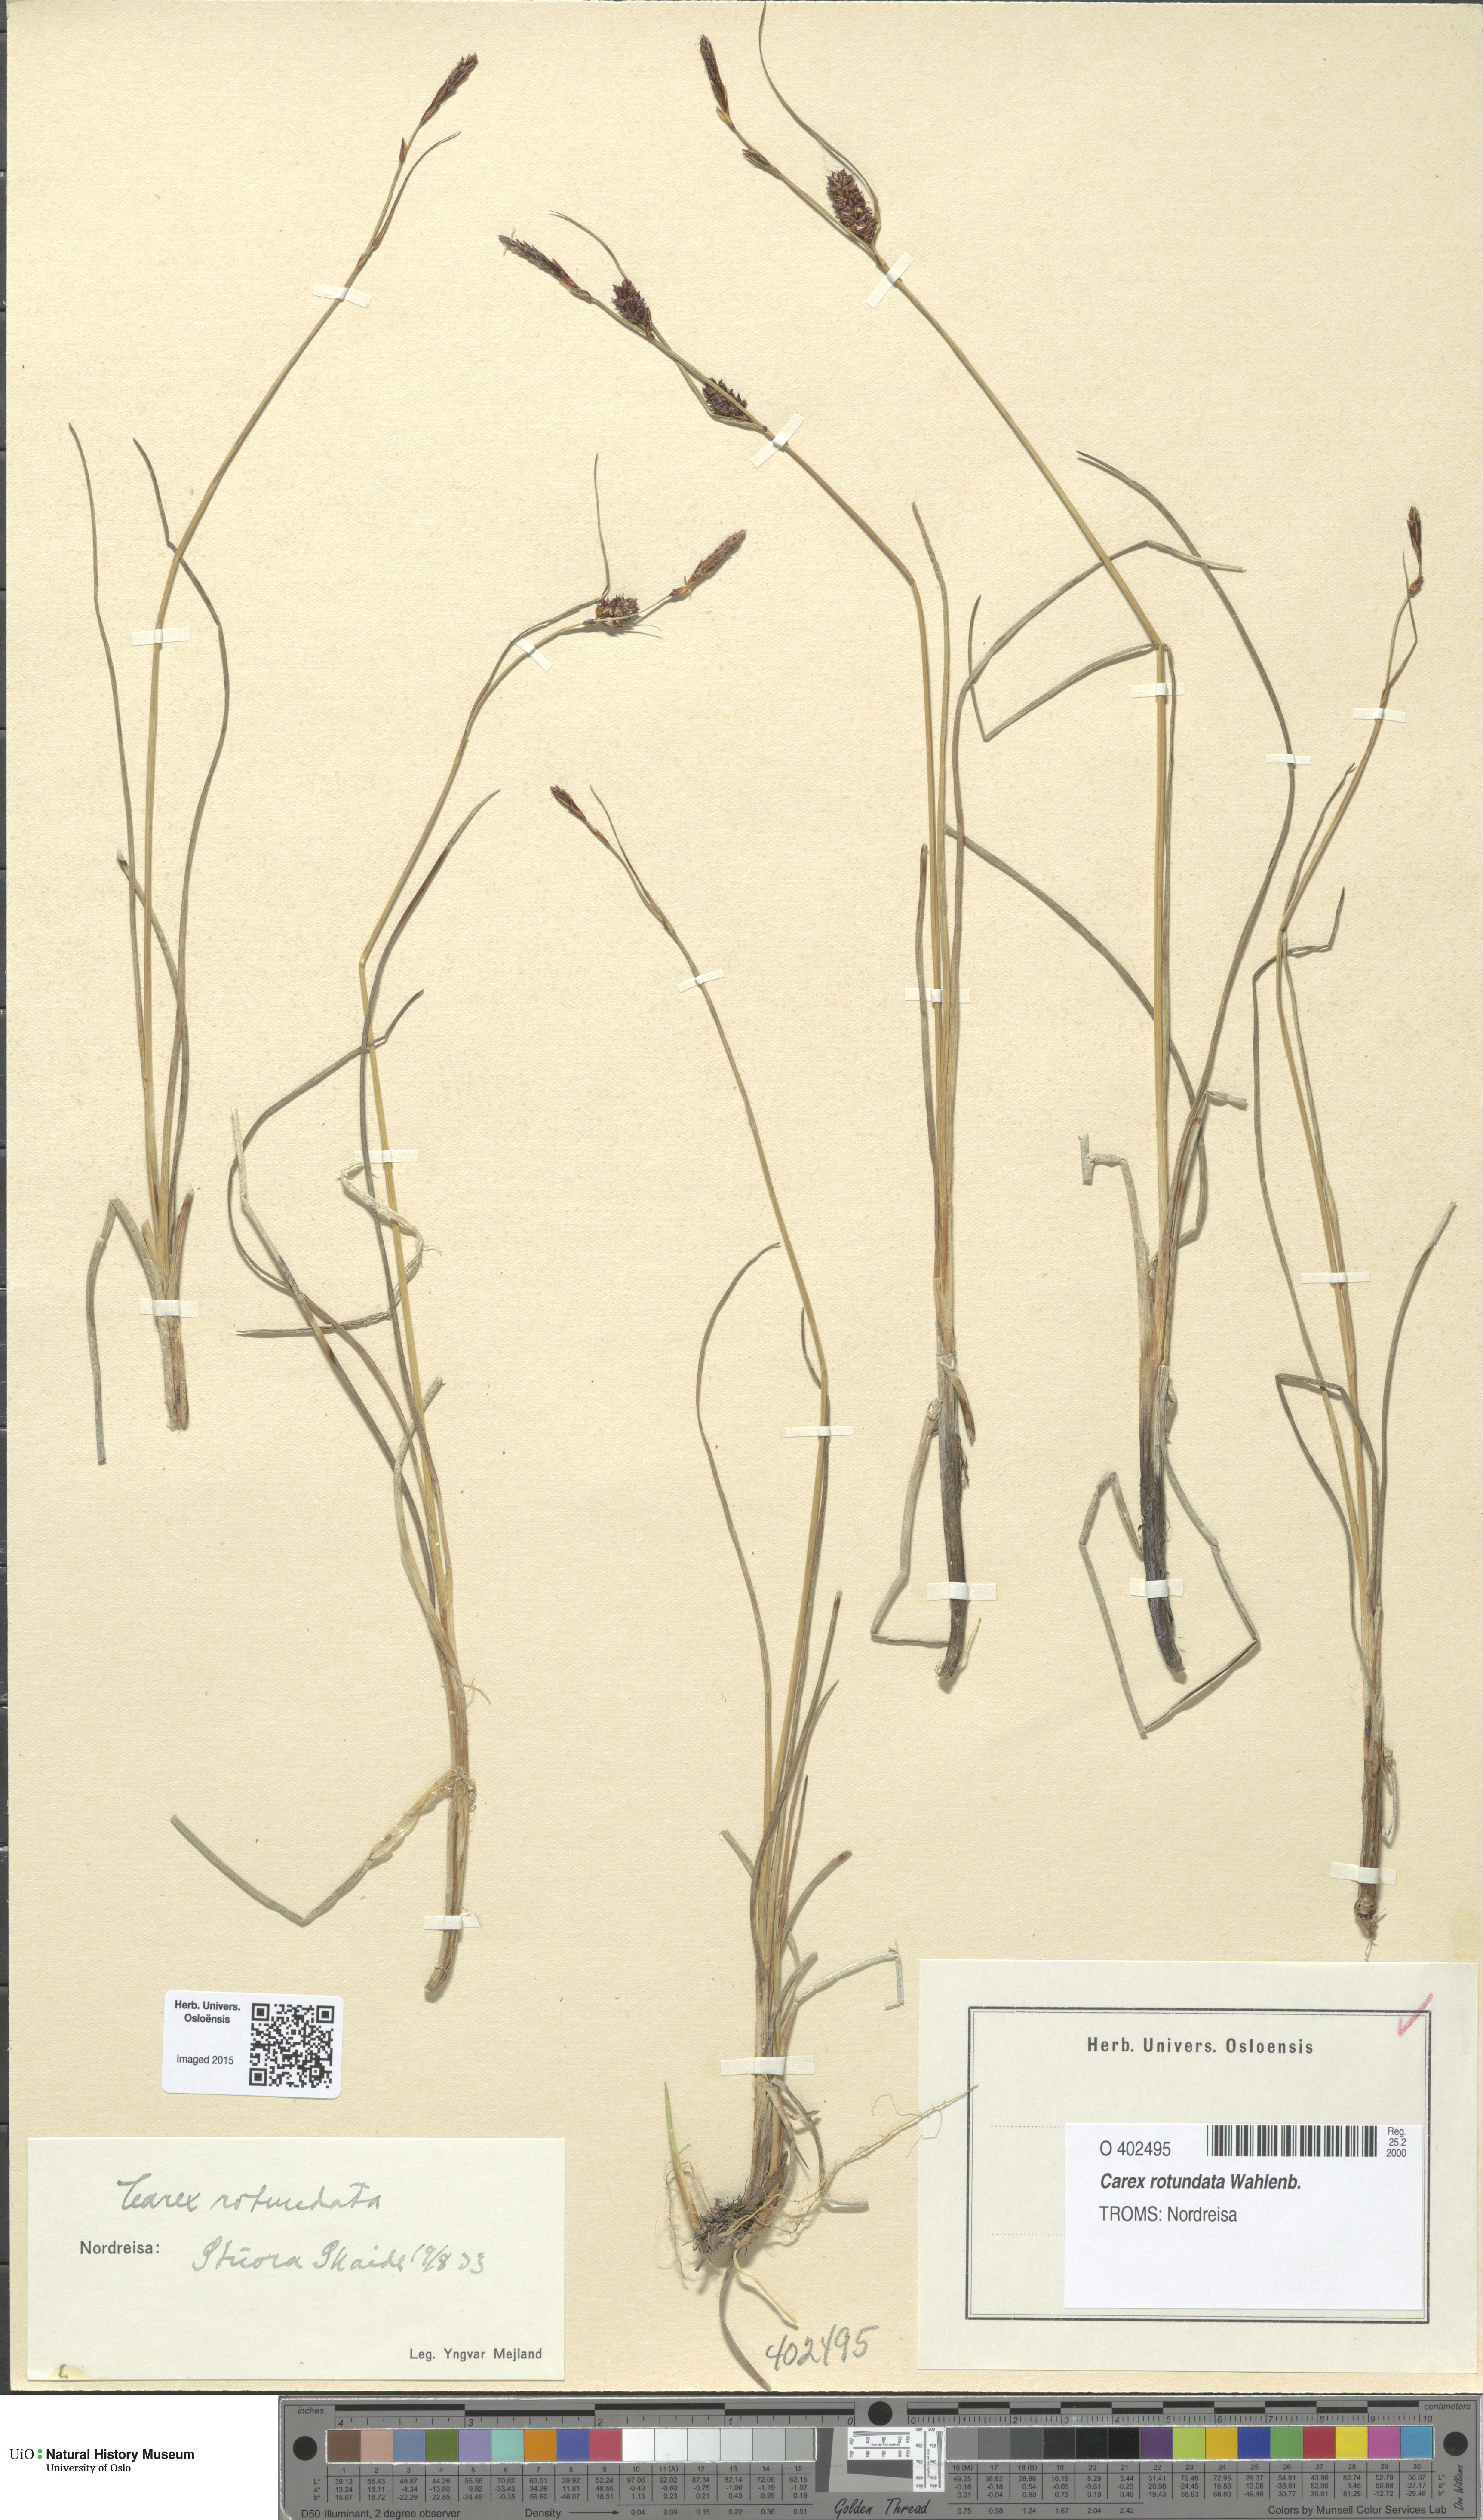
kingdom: Plantae
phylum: Tracheophyta
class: Liliopsida
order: Poales
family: Cyperaceae
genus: Carex
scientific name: Carex rotundata
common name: Round-fruited sedge
